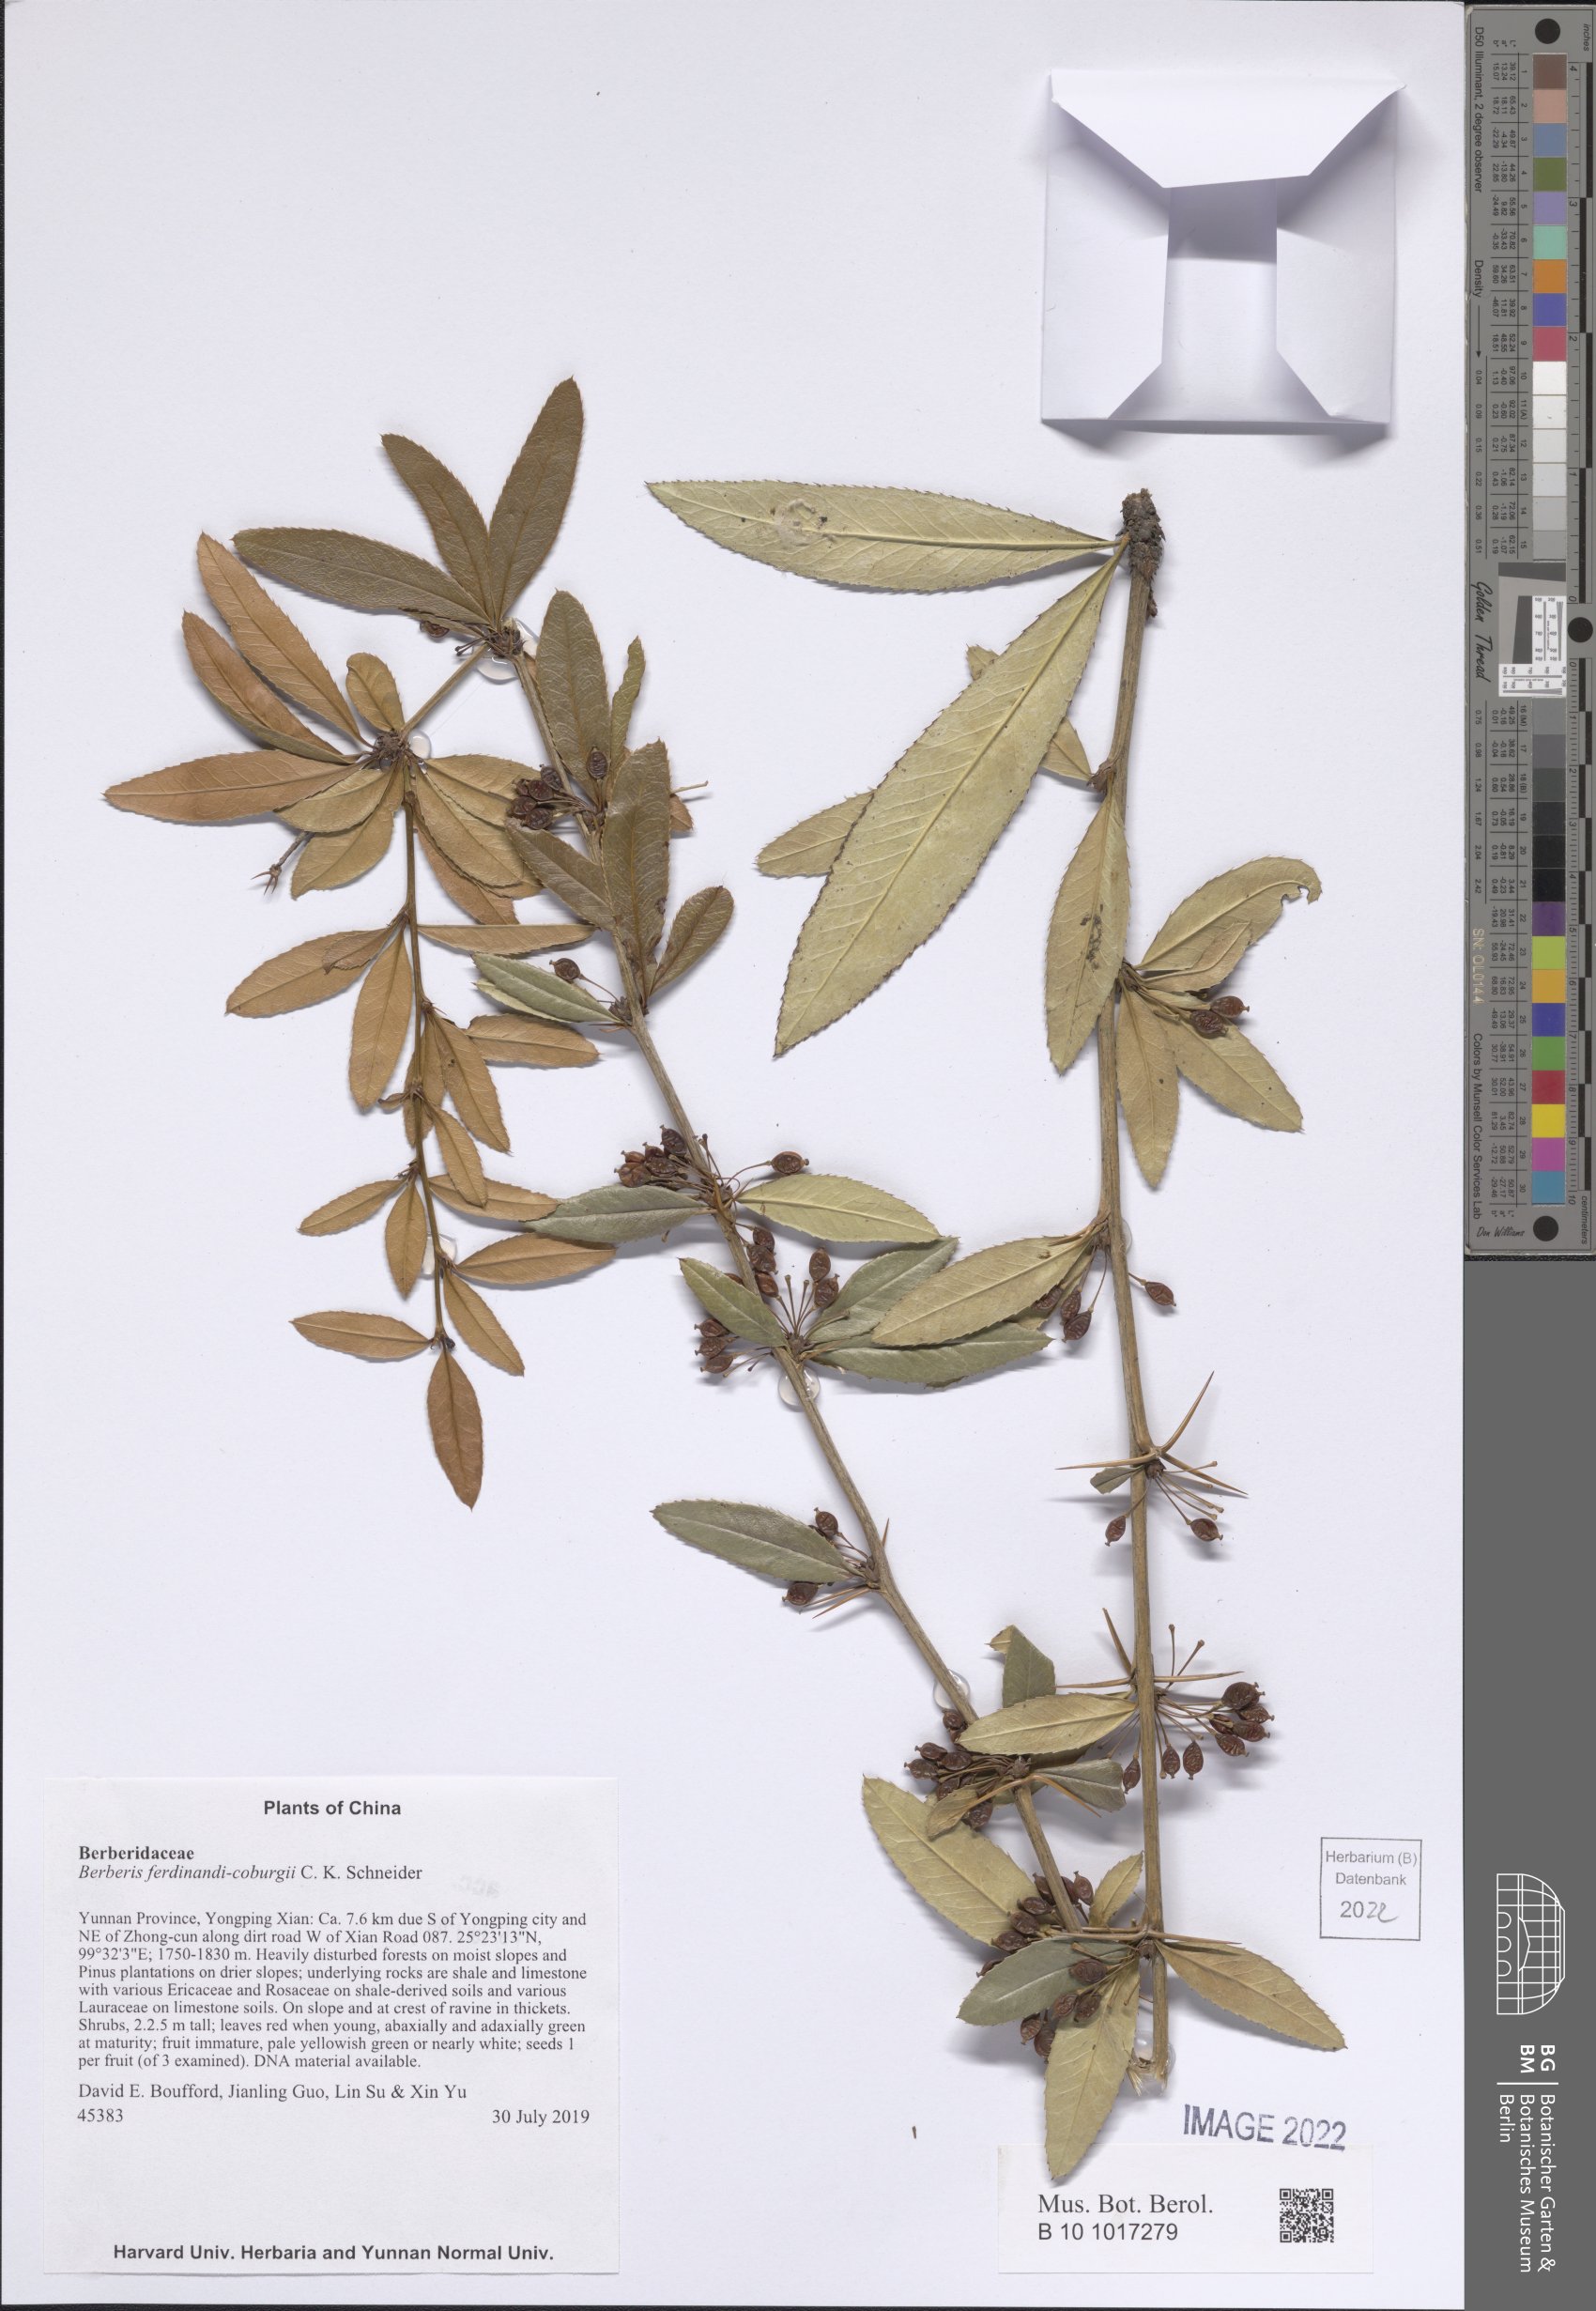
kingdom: Plantae
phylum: Tracheophyta
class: Magnoliopsida
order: Ranunculales
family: Berberidaceae
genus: Berberis
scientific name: Berberis ferdinandi-coburgii
